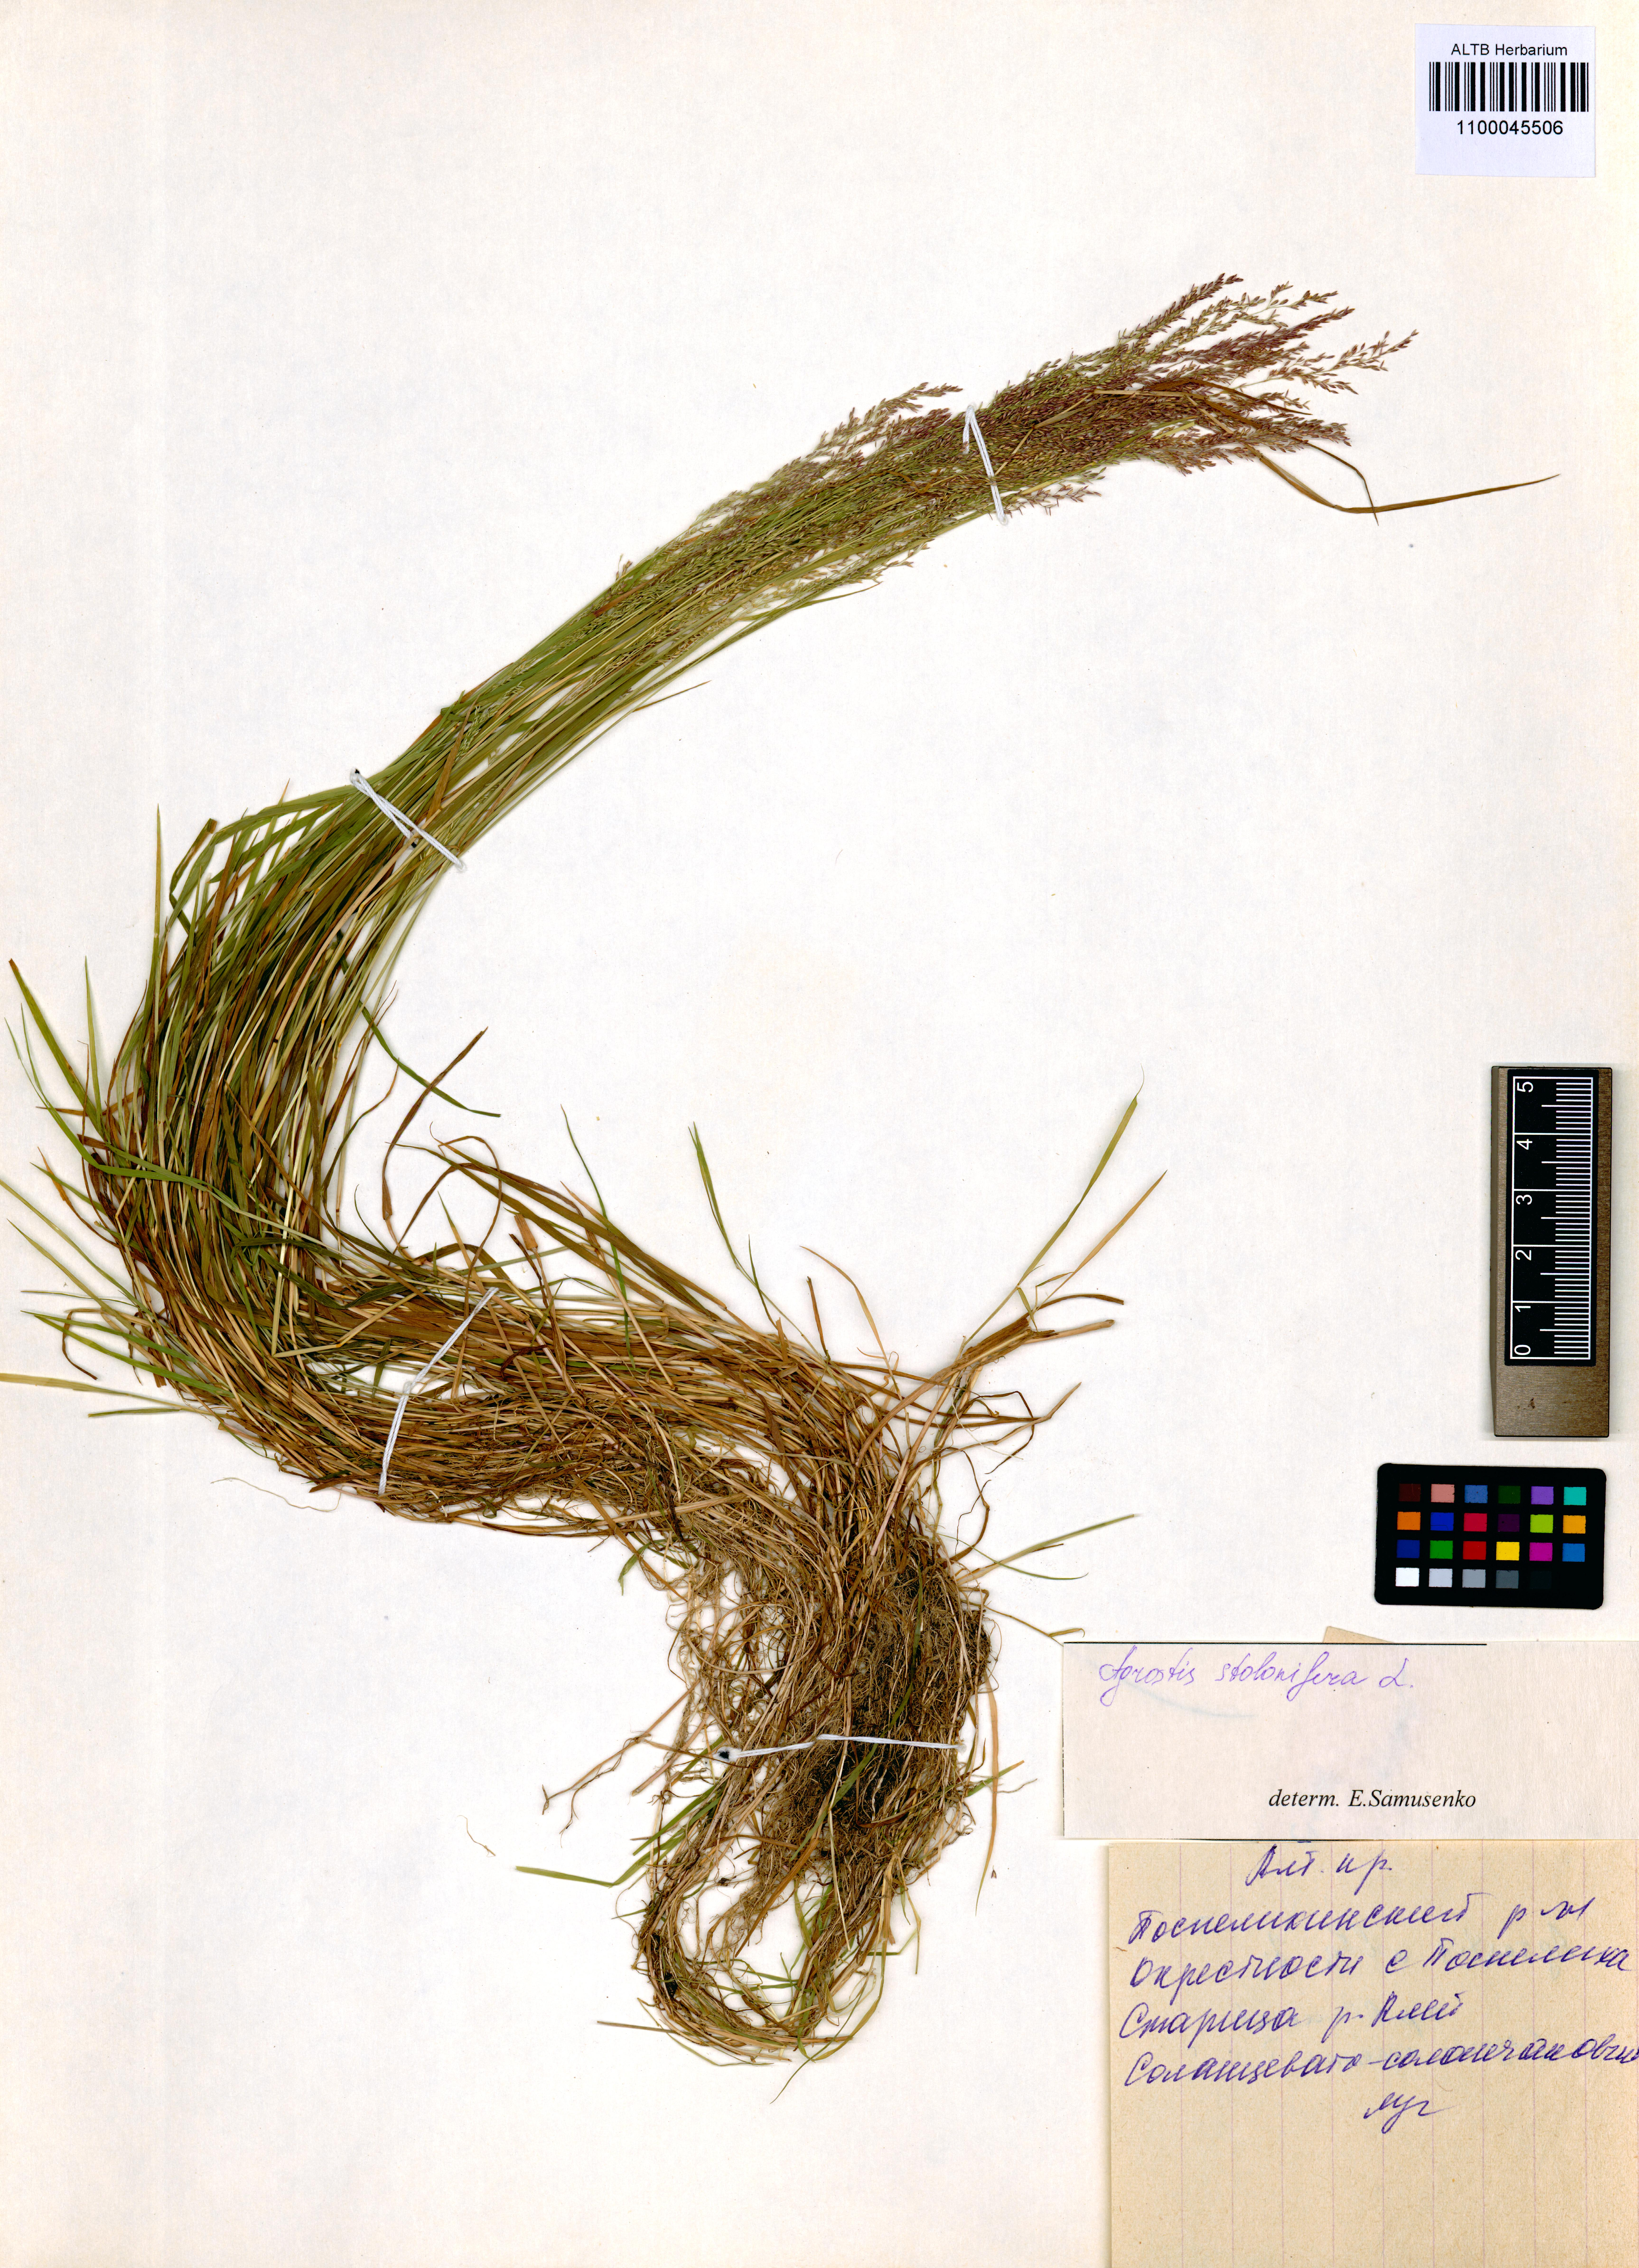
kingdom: Plantae
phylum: Tracheophyta
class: Liliopsida
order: Poales
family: Poaceae
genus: Agrostis
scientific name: Agrostis stolonifera
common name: Creeping bentgrass
